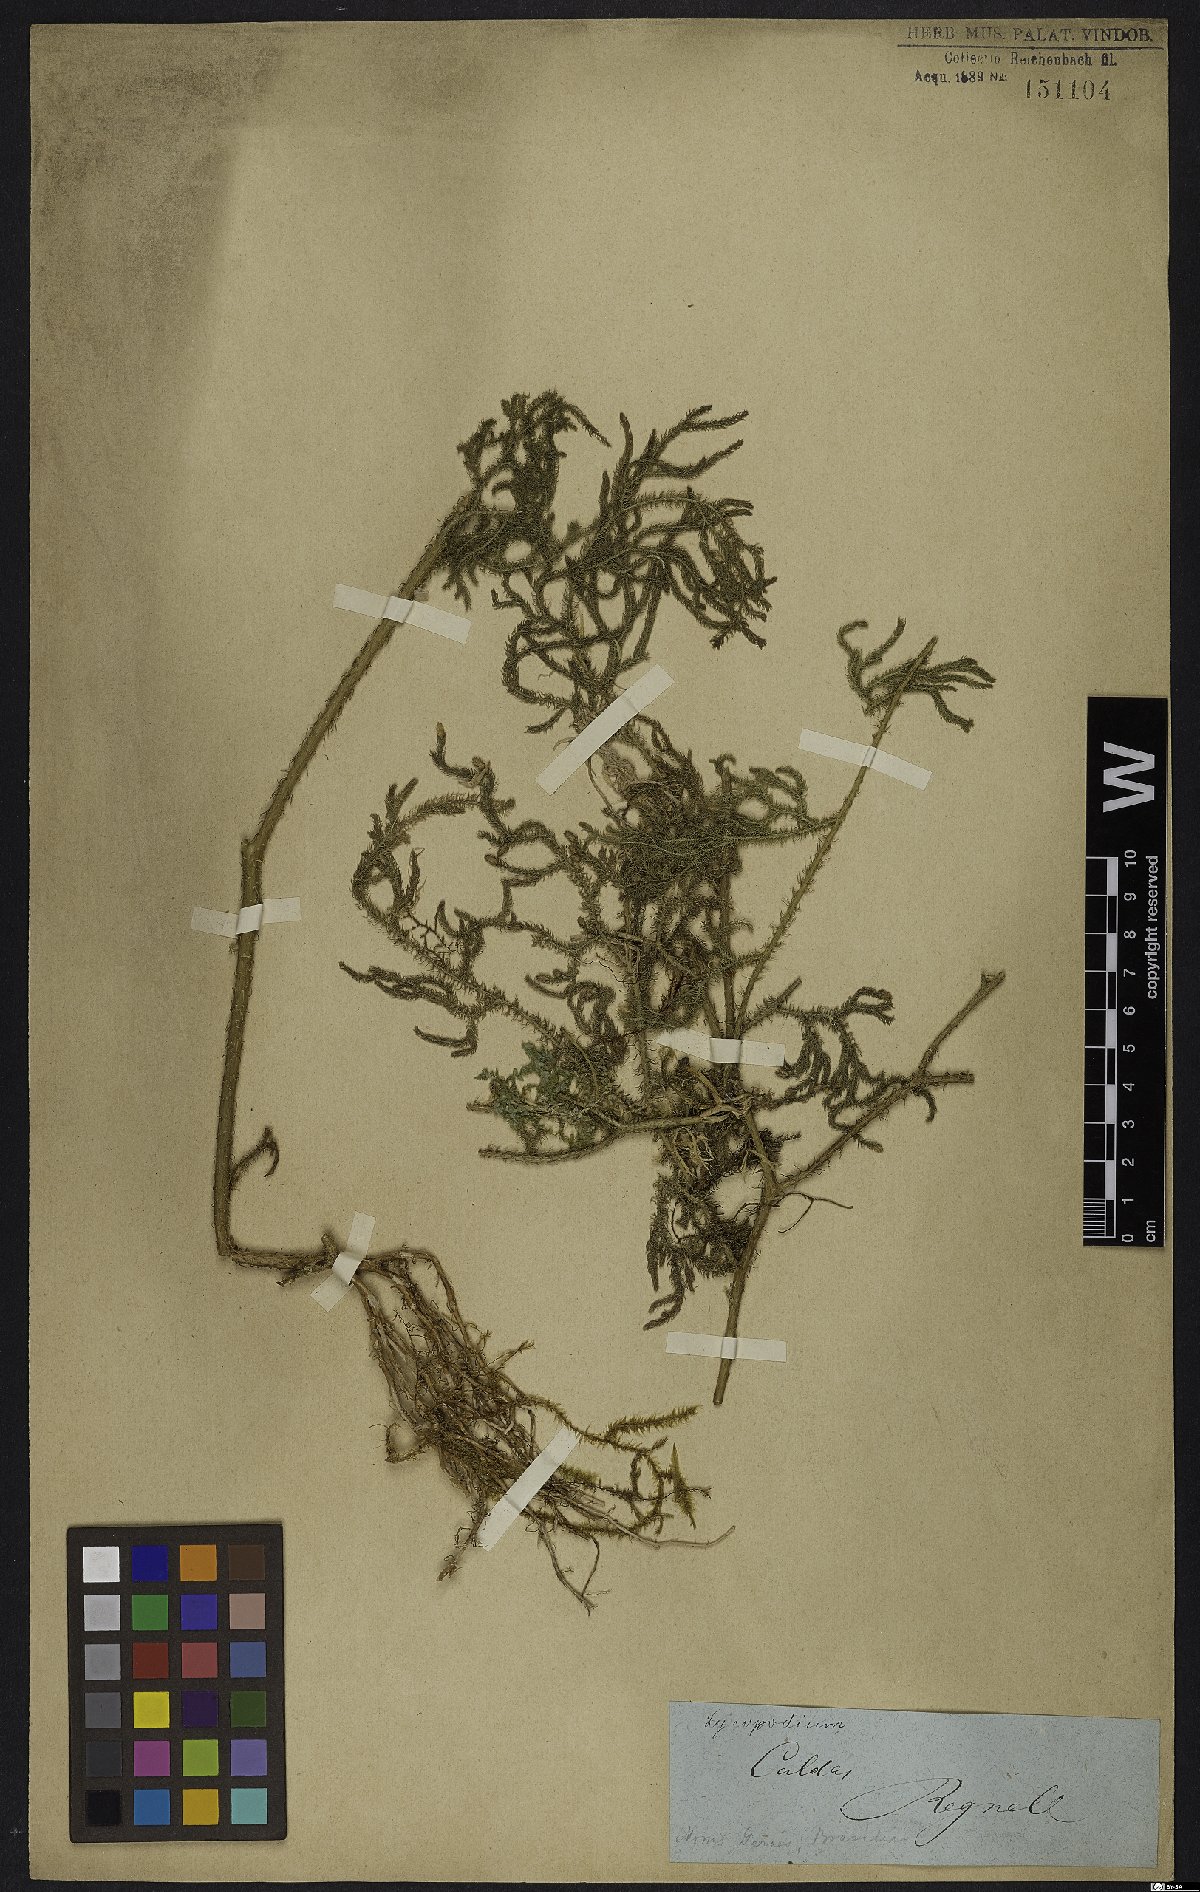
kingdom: Plantae
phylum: Tracheophyta
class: Lycopodiopsida
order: Lycopodiales
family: Lycopodiaceae
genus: Lycopodium
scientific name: Lycopodium
